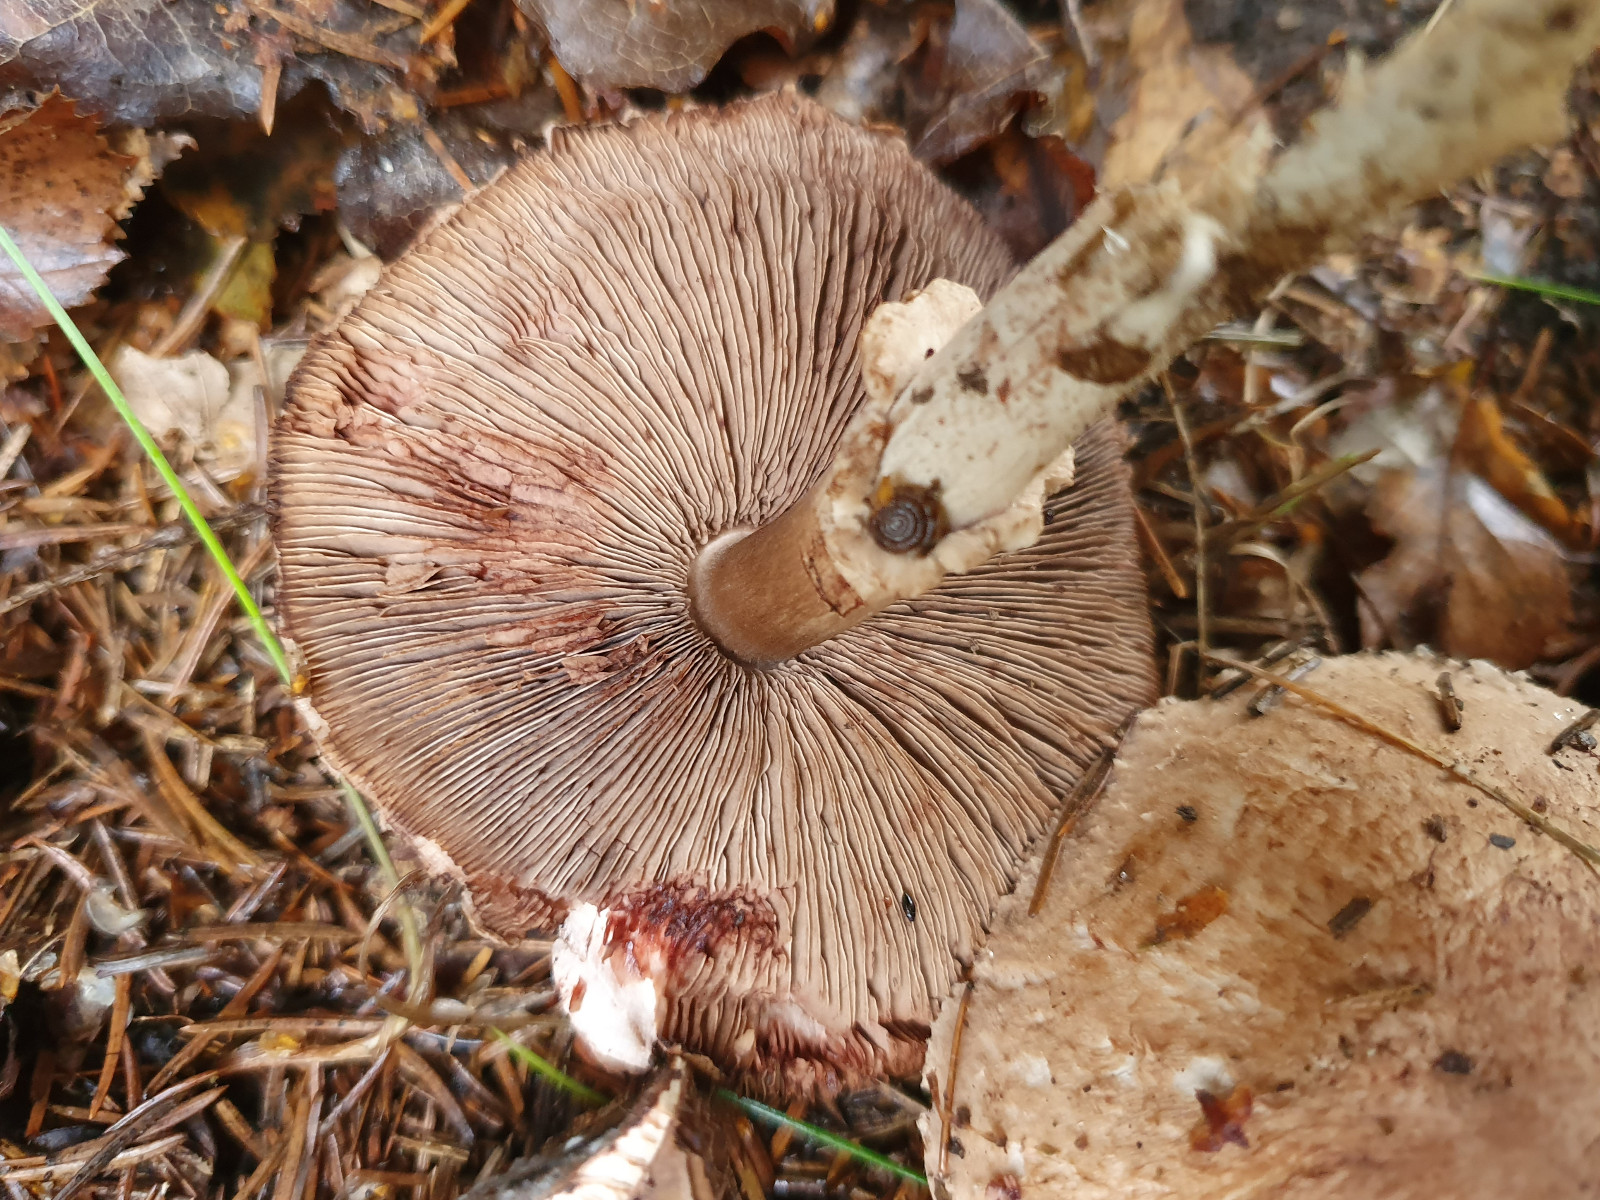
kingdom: Fungi
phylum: Basidiomycota
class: Agaricomycetes
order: Agaricales
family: Agaricaceae
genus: Agaricus
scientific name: Agaricus sylvaticus
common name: lille blod-champignon
